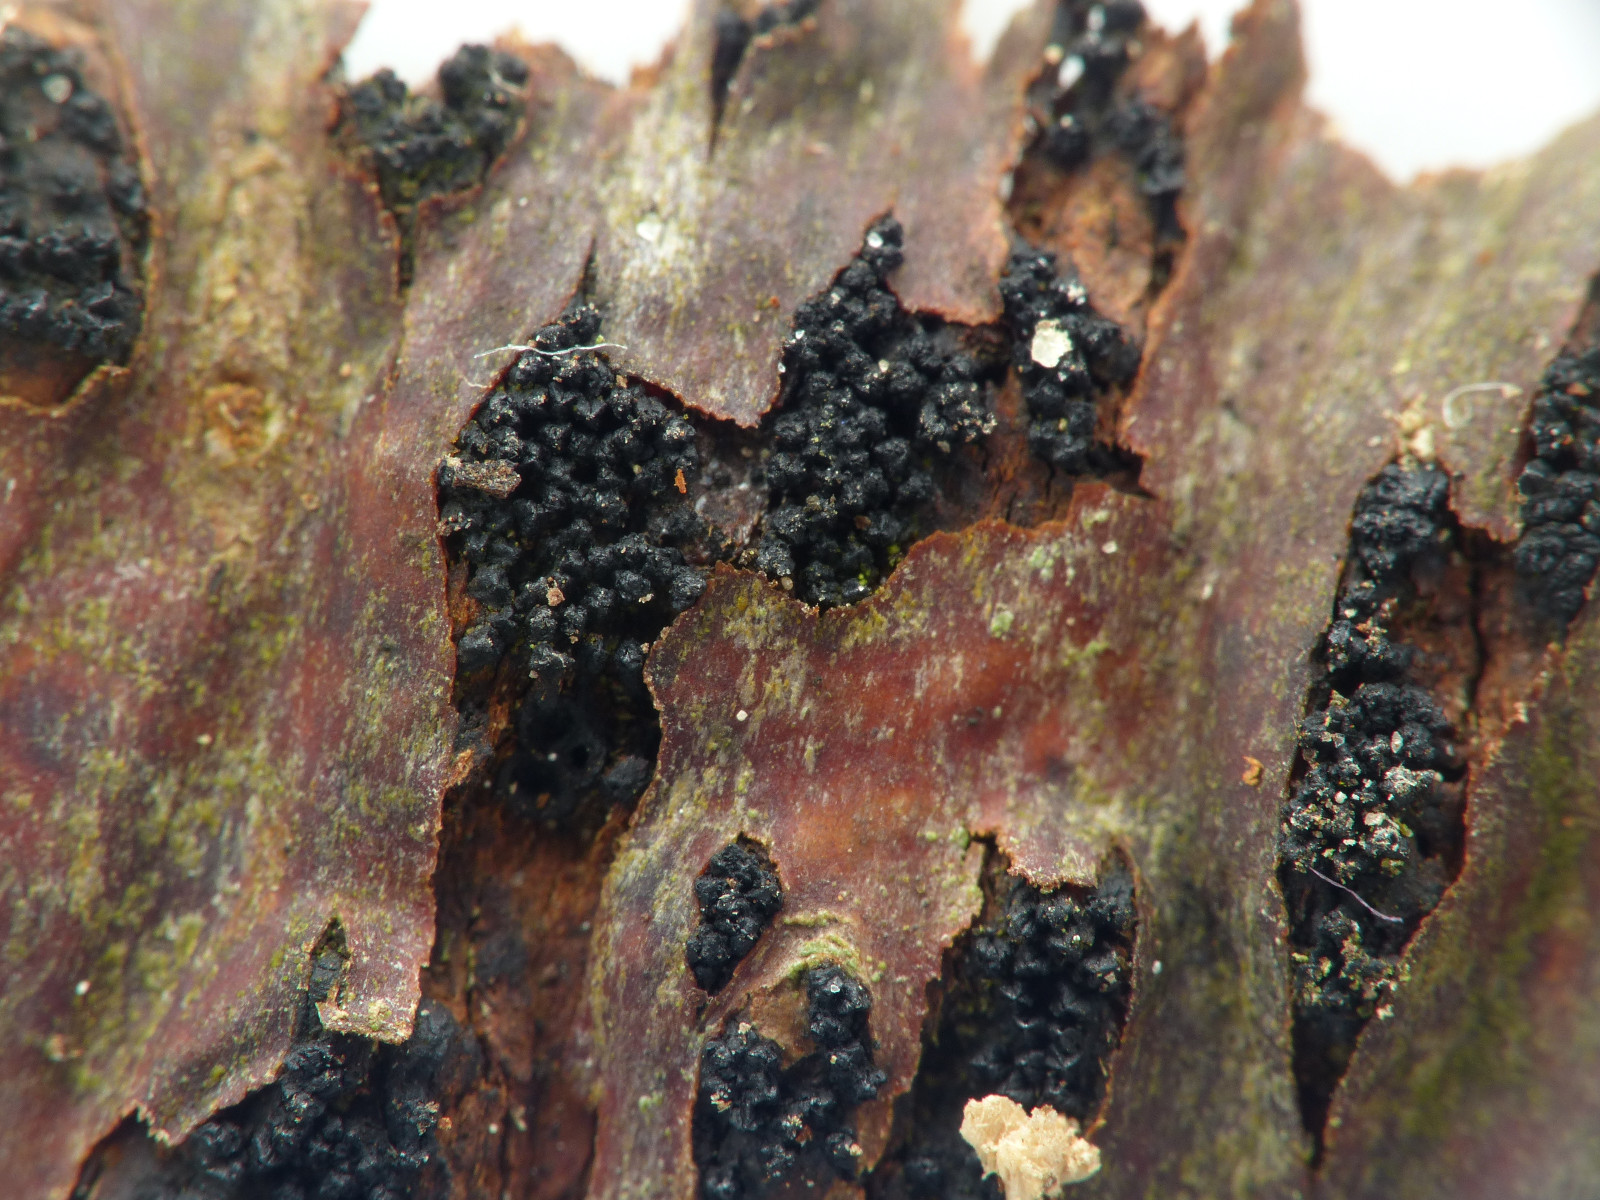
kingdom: Fungi
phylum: Ascomycota
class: Sordariomycetes
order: Xylariales
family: Diatrypaceae
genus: Eutypella
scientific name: Eutypella prunastri
